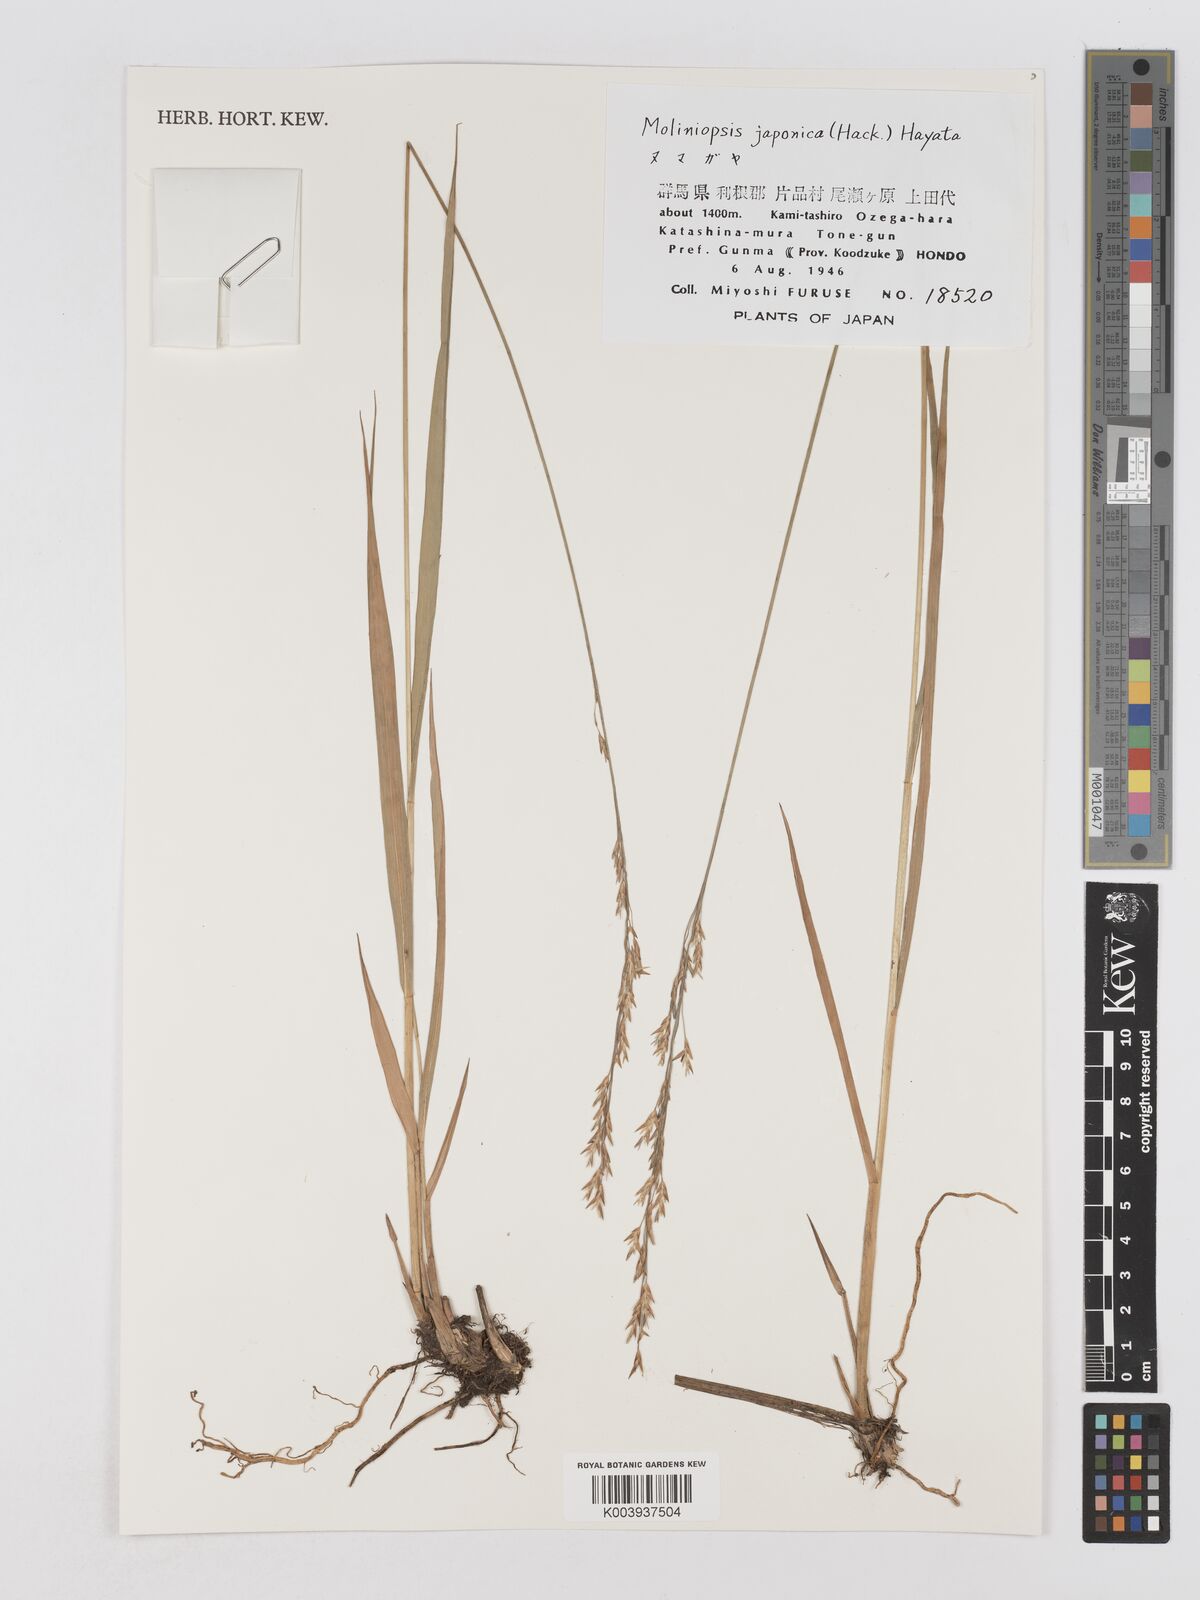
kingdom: Plantae
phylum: Tracheophyta
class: Liliopsida
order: Poales
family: Poaceae
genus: Moliniopsis
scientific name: Moliniopsis japonica
